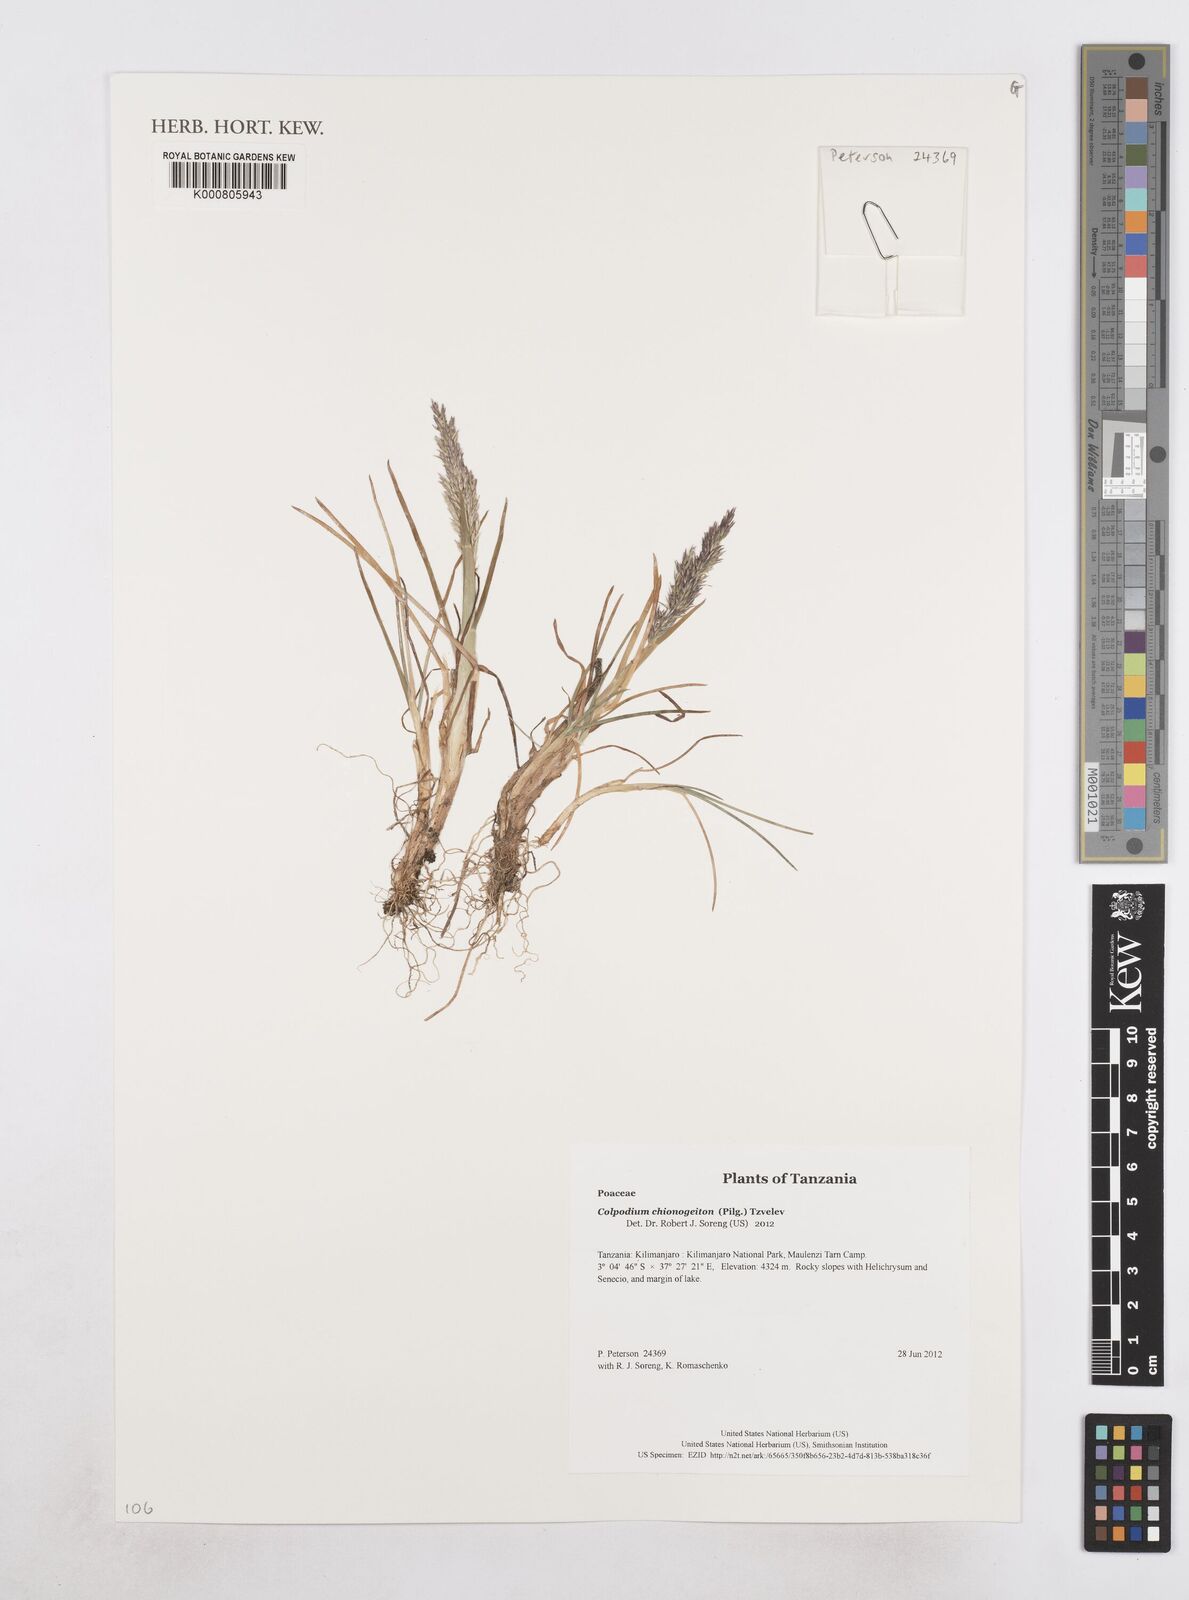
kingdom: Plantae
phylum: Tracheophyta
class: Liliopsida
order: Poales
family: Poaceae
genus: Colpodium
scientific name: Colpodium chionogeiton
